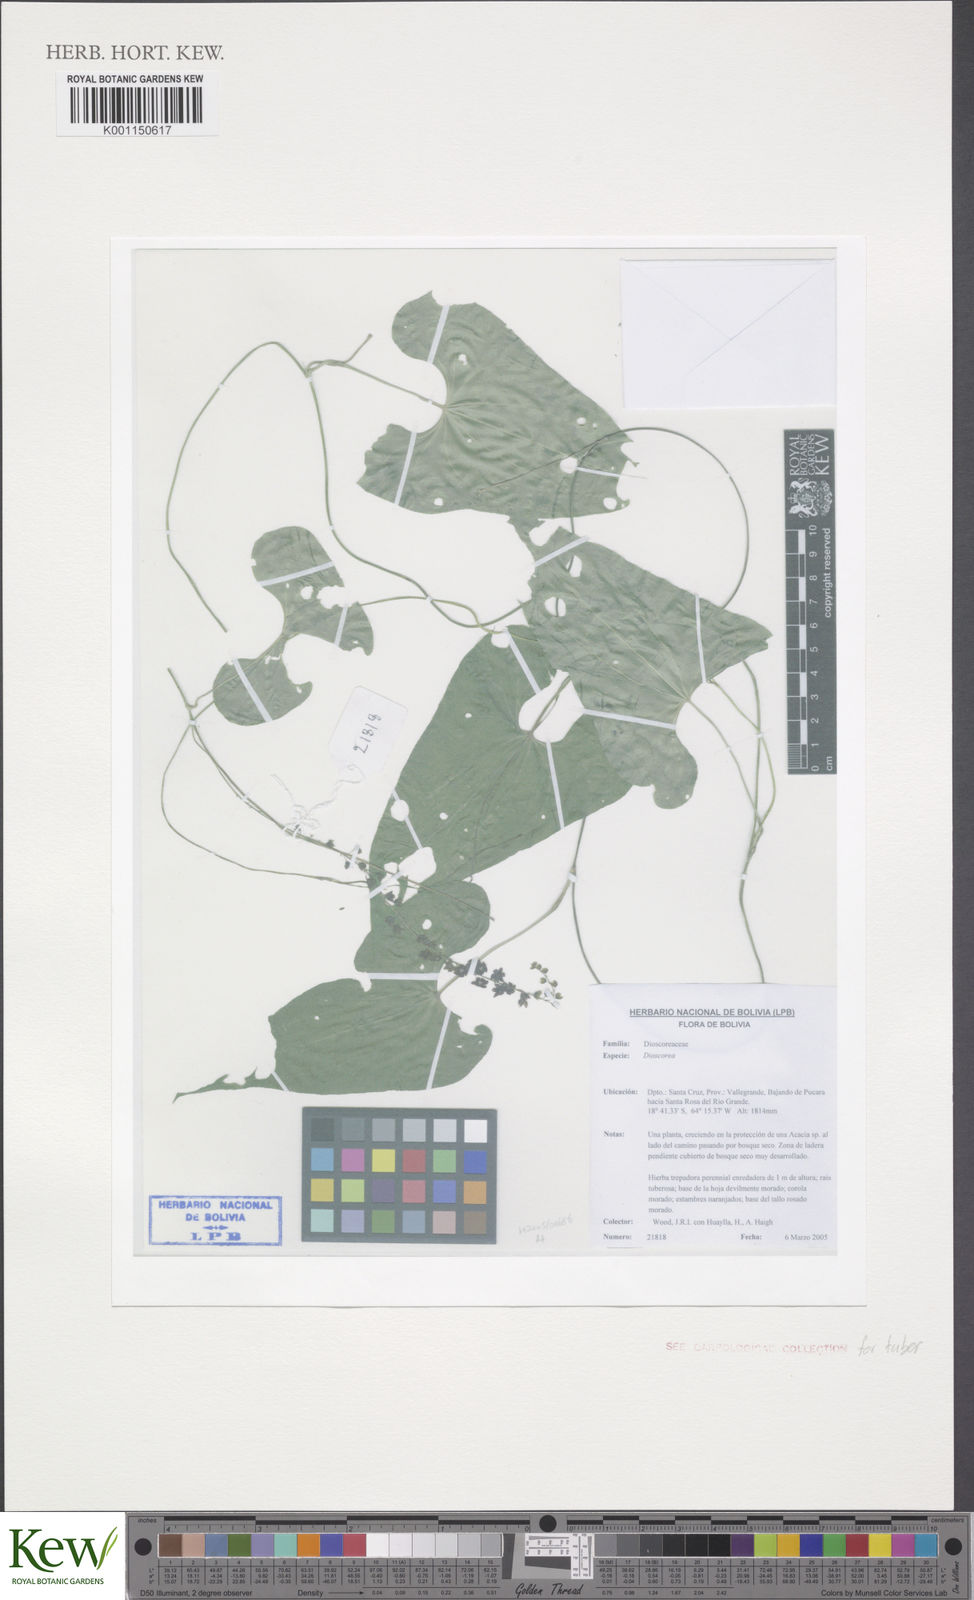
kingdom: Plantae
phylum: Tracheophyta
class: Liliopsida
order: Dioscoreales
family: Dioscoreaceae
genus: Dioscorea
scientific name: Dioscorea
